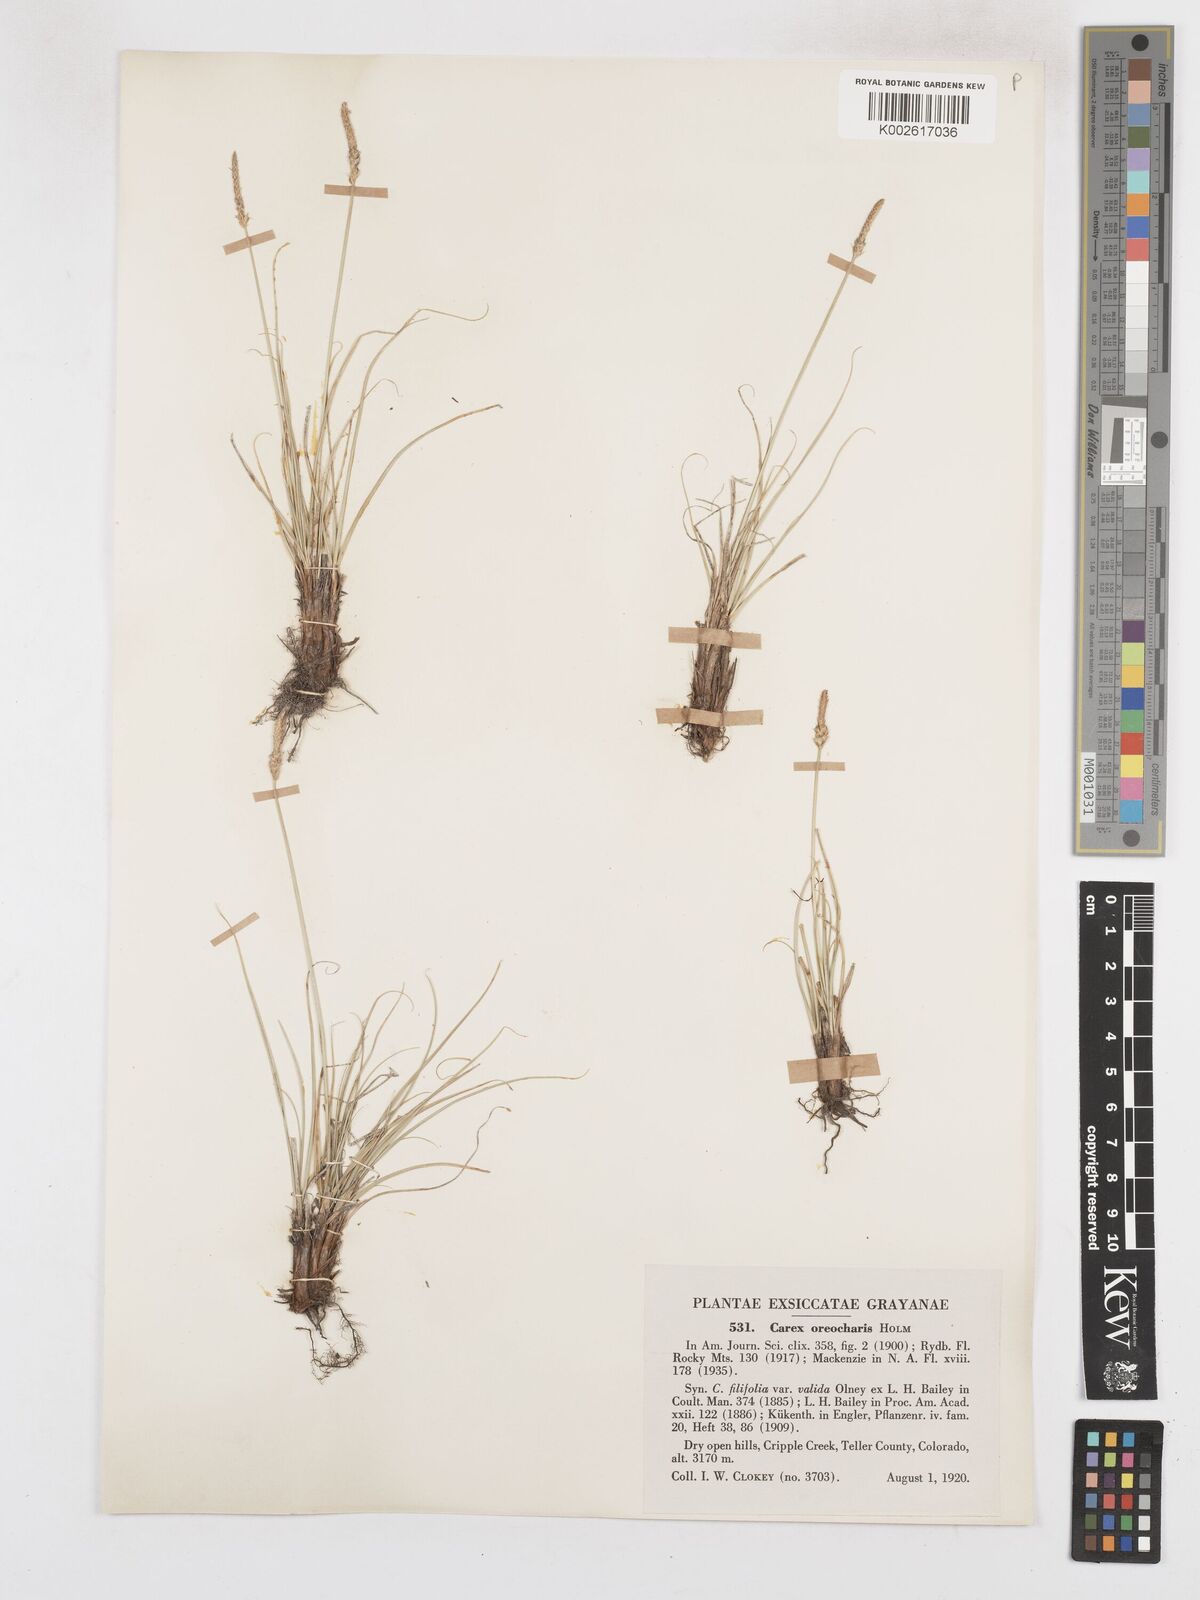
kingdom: Plantae
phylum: Tracheophyta
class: Liliopsida
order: Poales
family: Cyperaceae
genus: Carex
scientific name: Carex oreocharis
